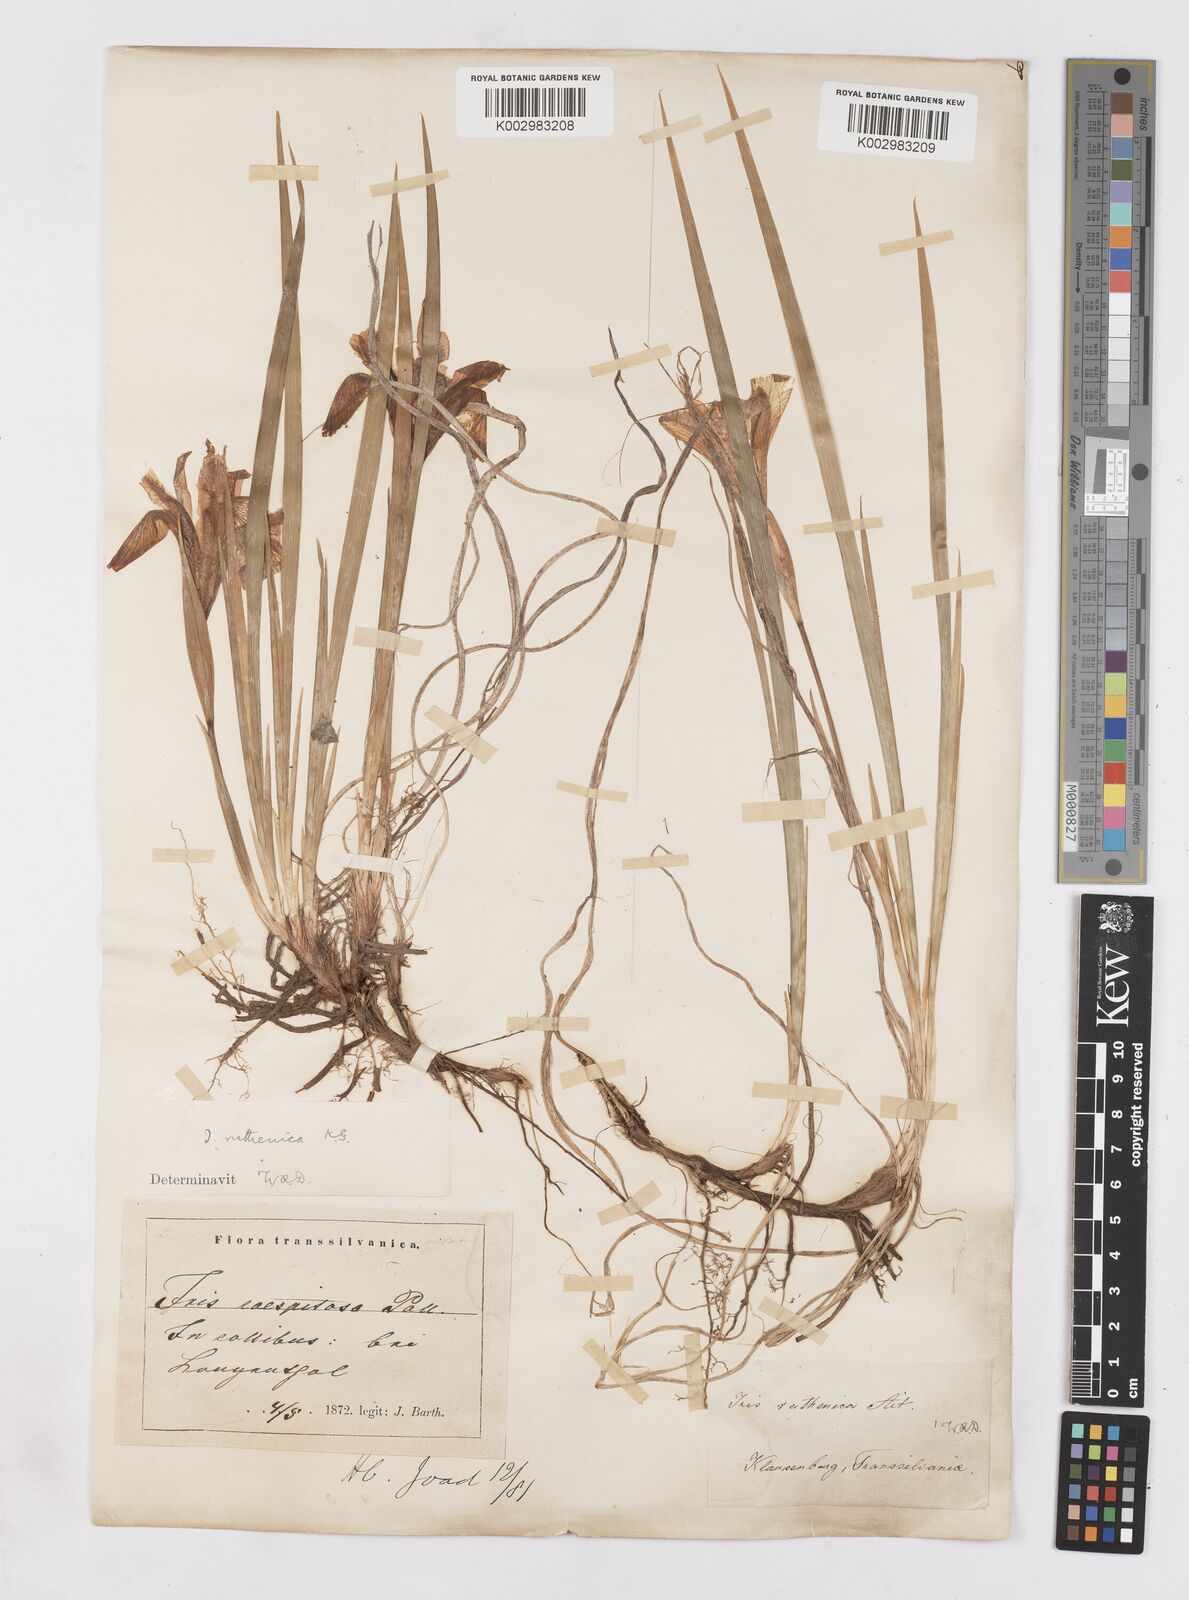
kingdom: Plantae
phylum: Tracheophyta
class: Liliopsida
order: Asparagales
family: Iridaceae
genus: Iris
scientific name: Iris ruthenica
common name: Purple-bract iris
